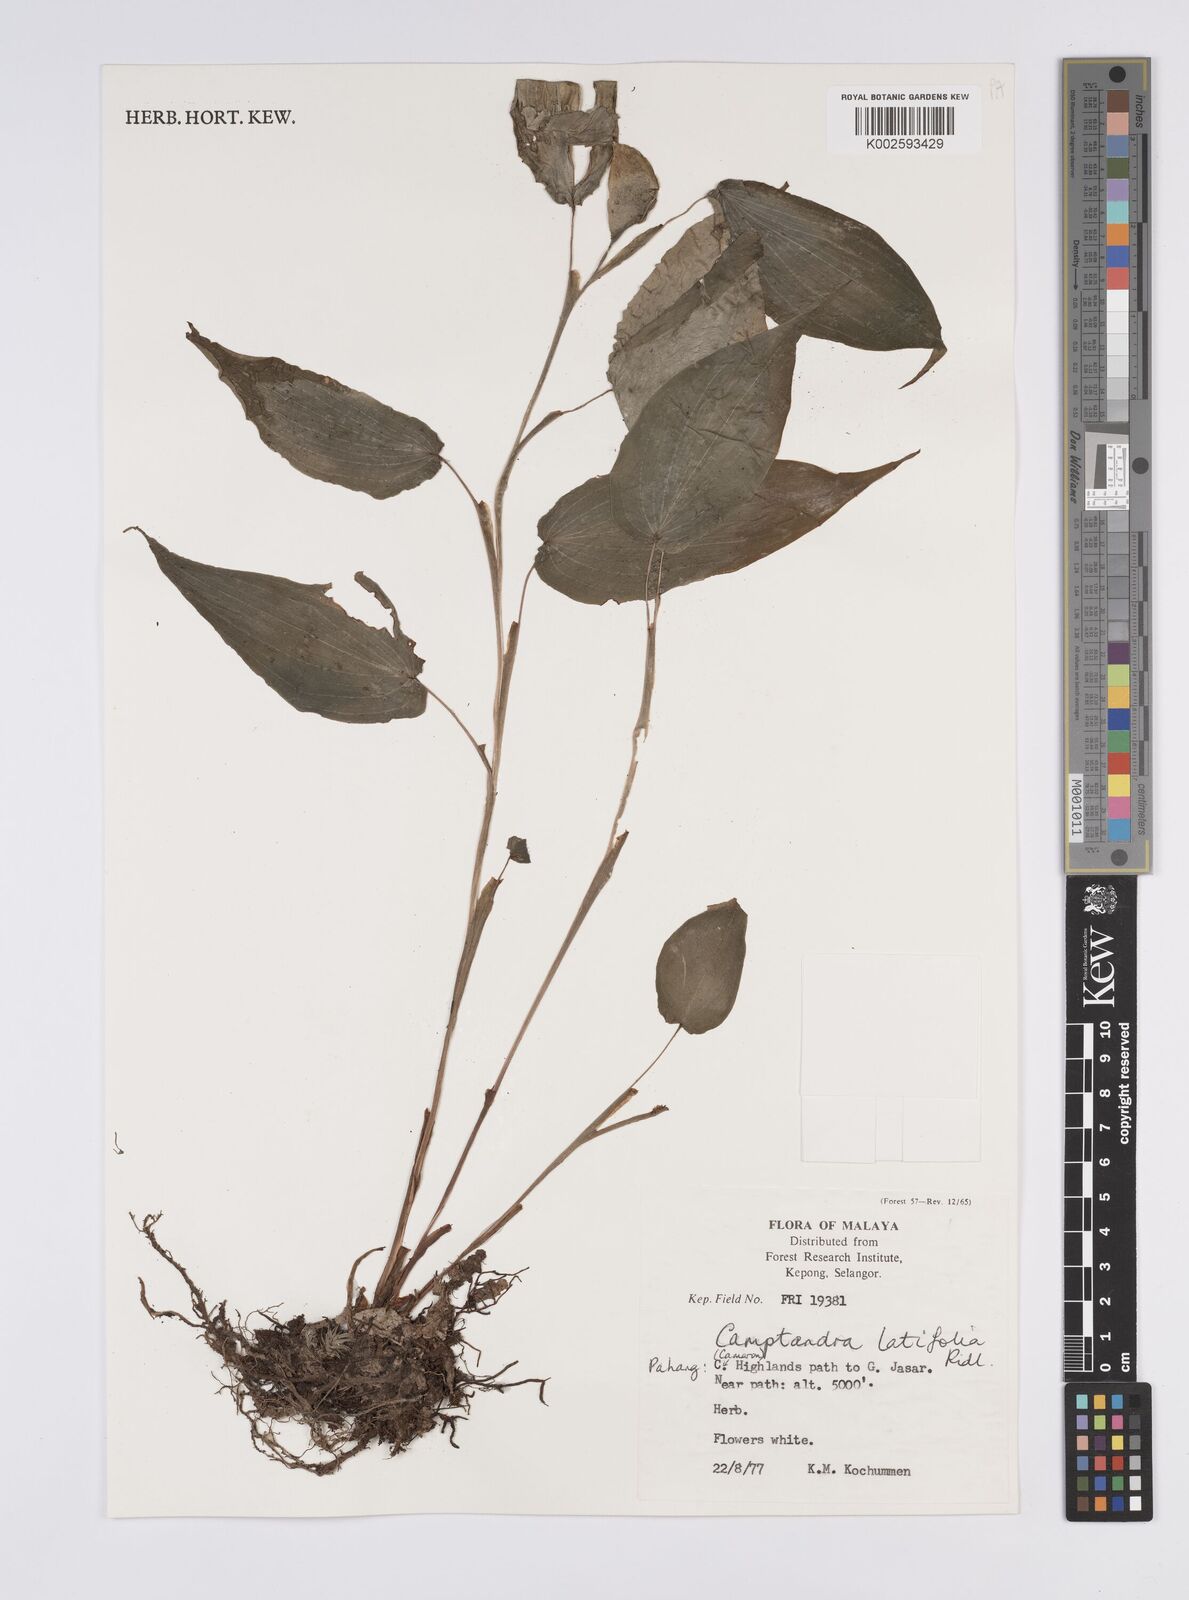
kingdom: Plantae
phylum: Tracheophyta
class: Liliopsida
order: Zingiberales
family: Zingiberaceae
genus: Camptandra
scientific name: Camptandra latifolia
